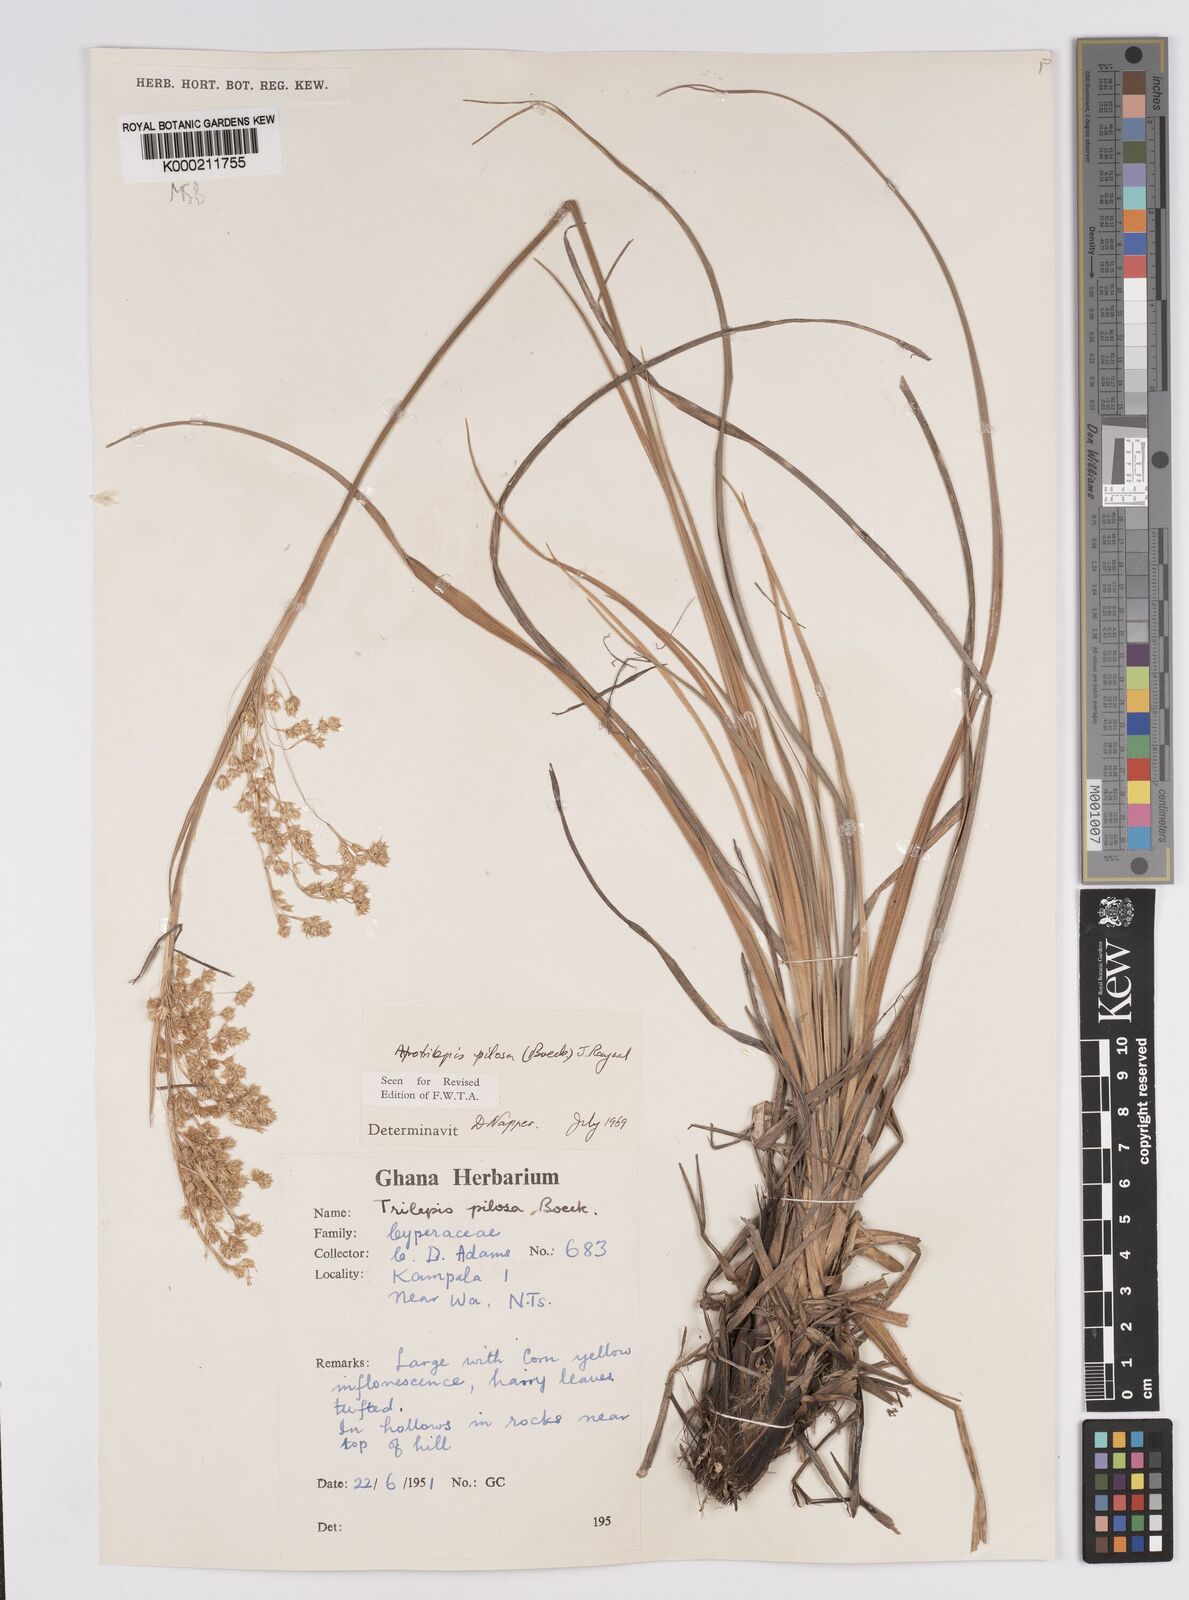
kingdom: Plantae
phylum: Tracheophyta
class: Liliopsida
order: Poales
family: Cyperaceae
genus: Afrotrilepis
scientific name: Afrotrilepis pilosa
